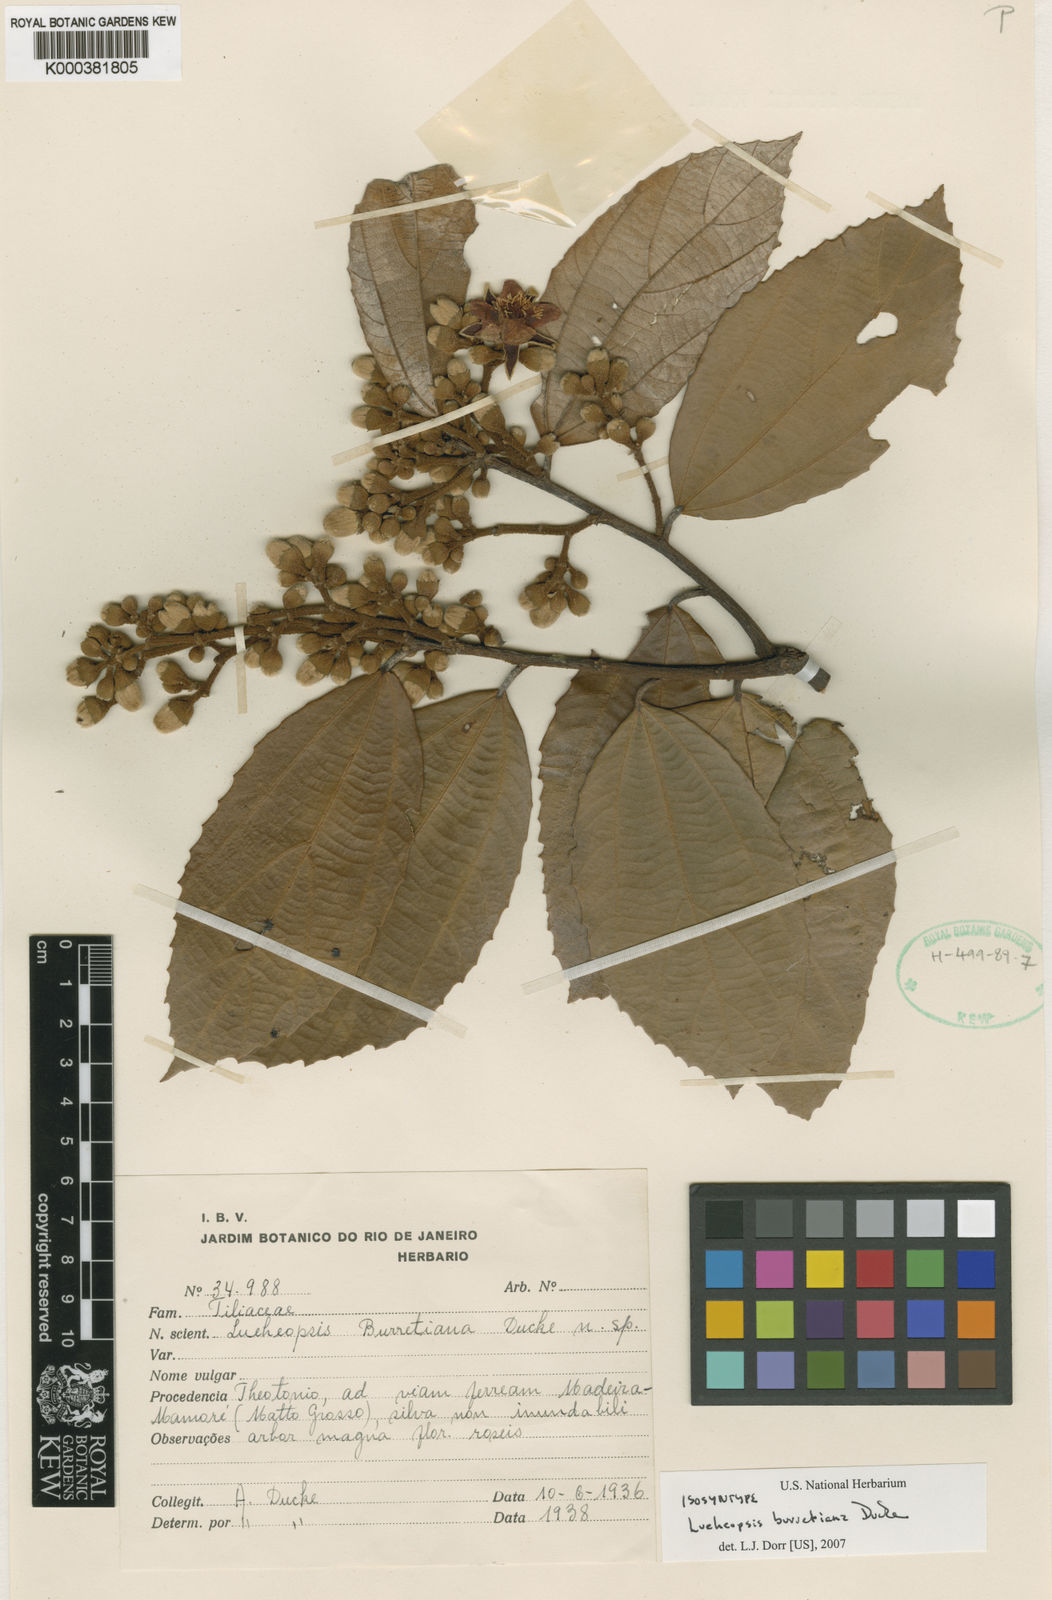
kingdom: Plantae
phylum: Tracheophyta
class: Magnoliopsida
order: Malvales
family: Malvaceae
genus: Lueheopsis
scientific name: Lueheopsis burretiana
